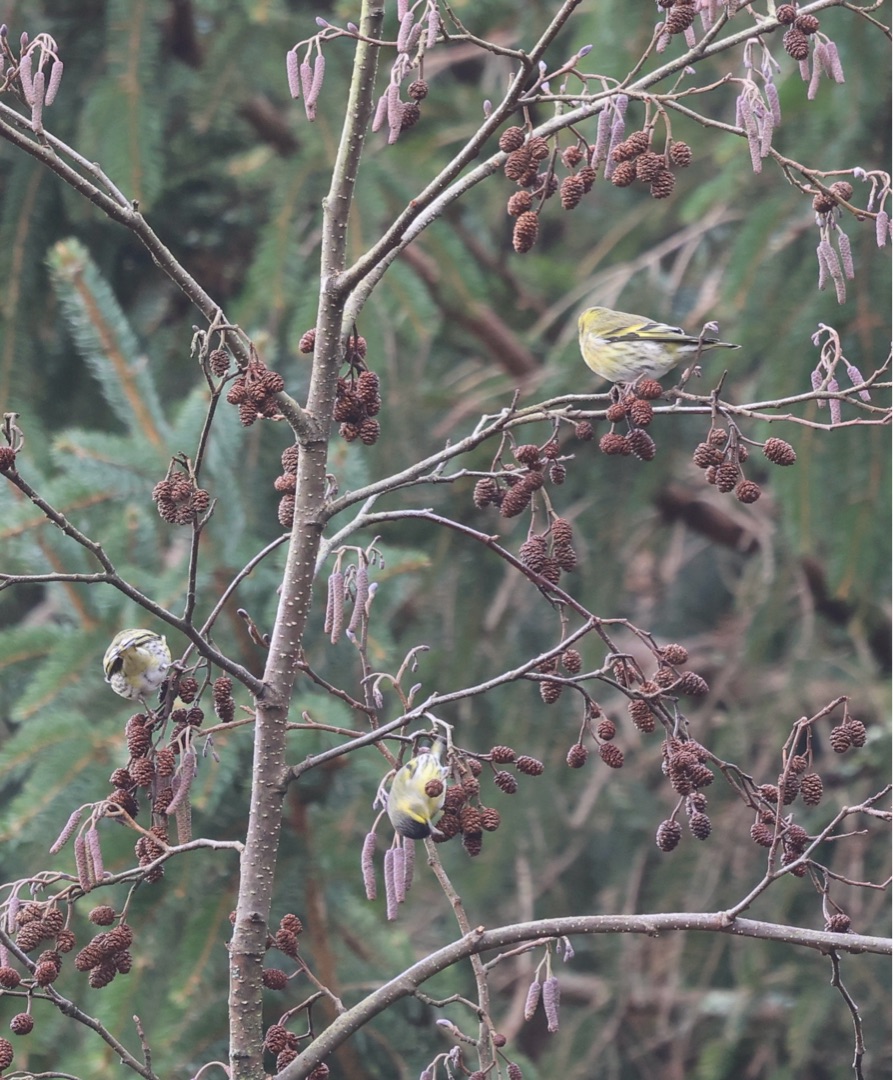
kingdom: Animalia
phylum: Chordata
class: Aves
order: Passeriformes
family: Fringillidae
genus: Spinus
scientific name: Spinus spinus
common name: Grønsisken
